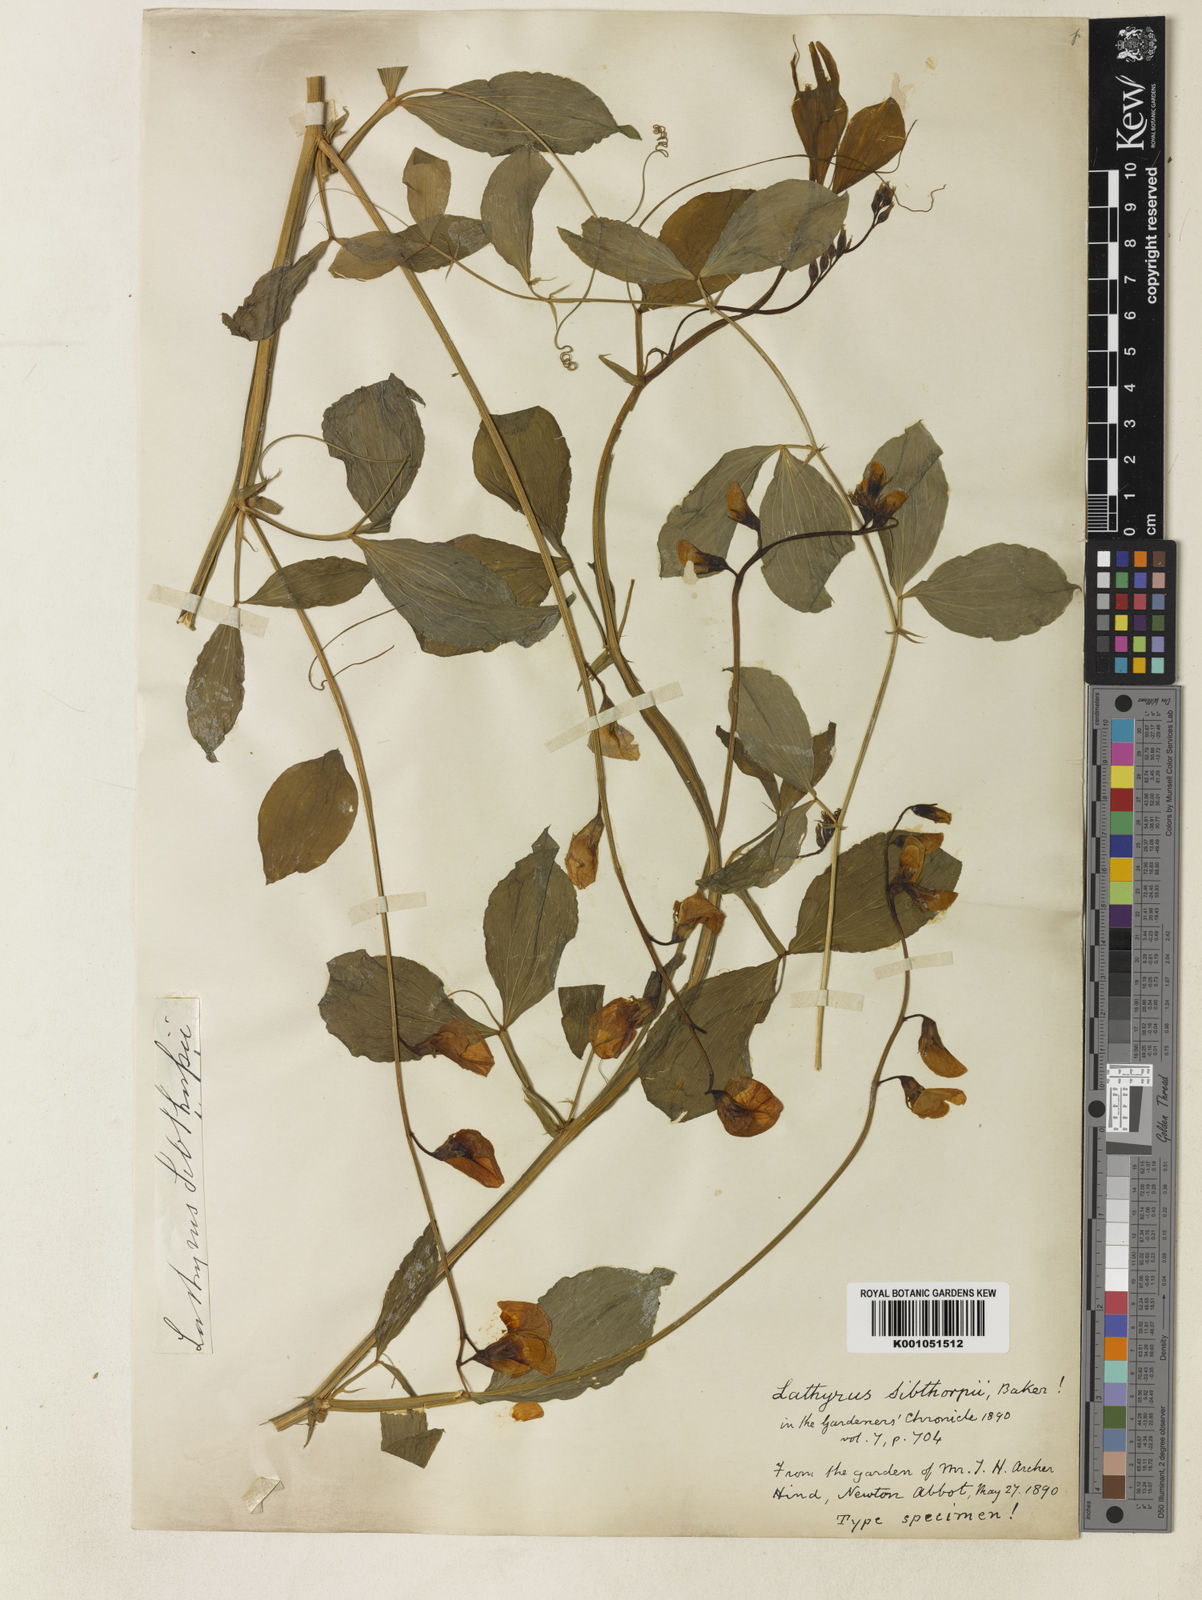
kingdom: Plantae
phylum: Tracheophyta
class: Magnoliopsida
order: Fabales
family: Fabaceae
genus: Lathyrus
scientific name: Lathyrus undulatus
